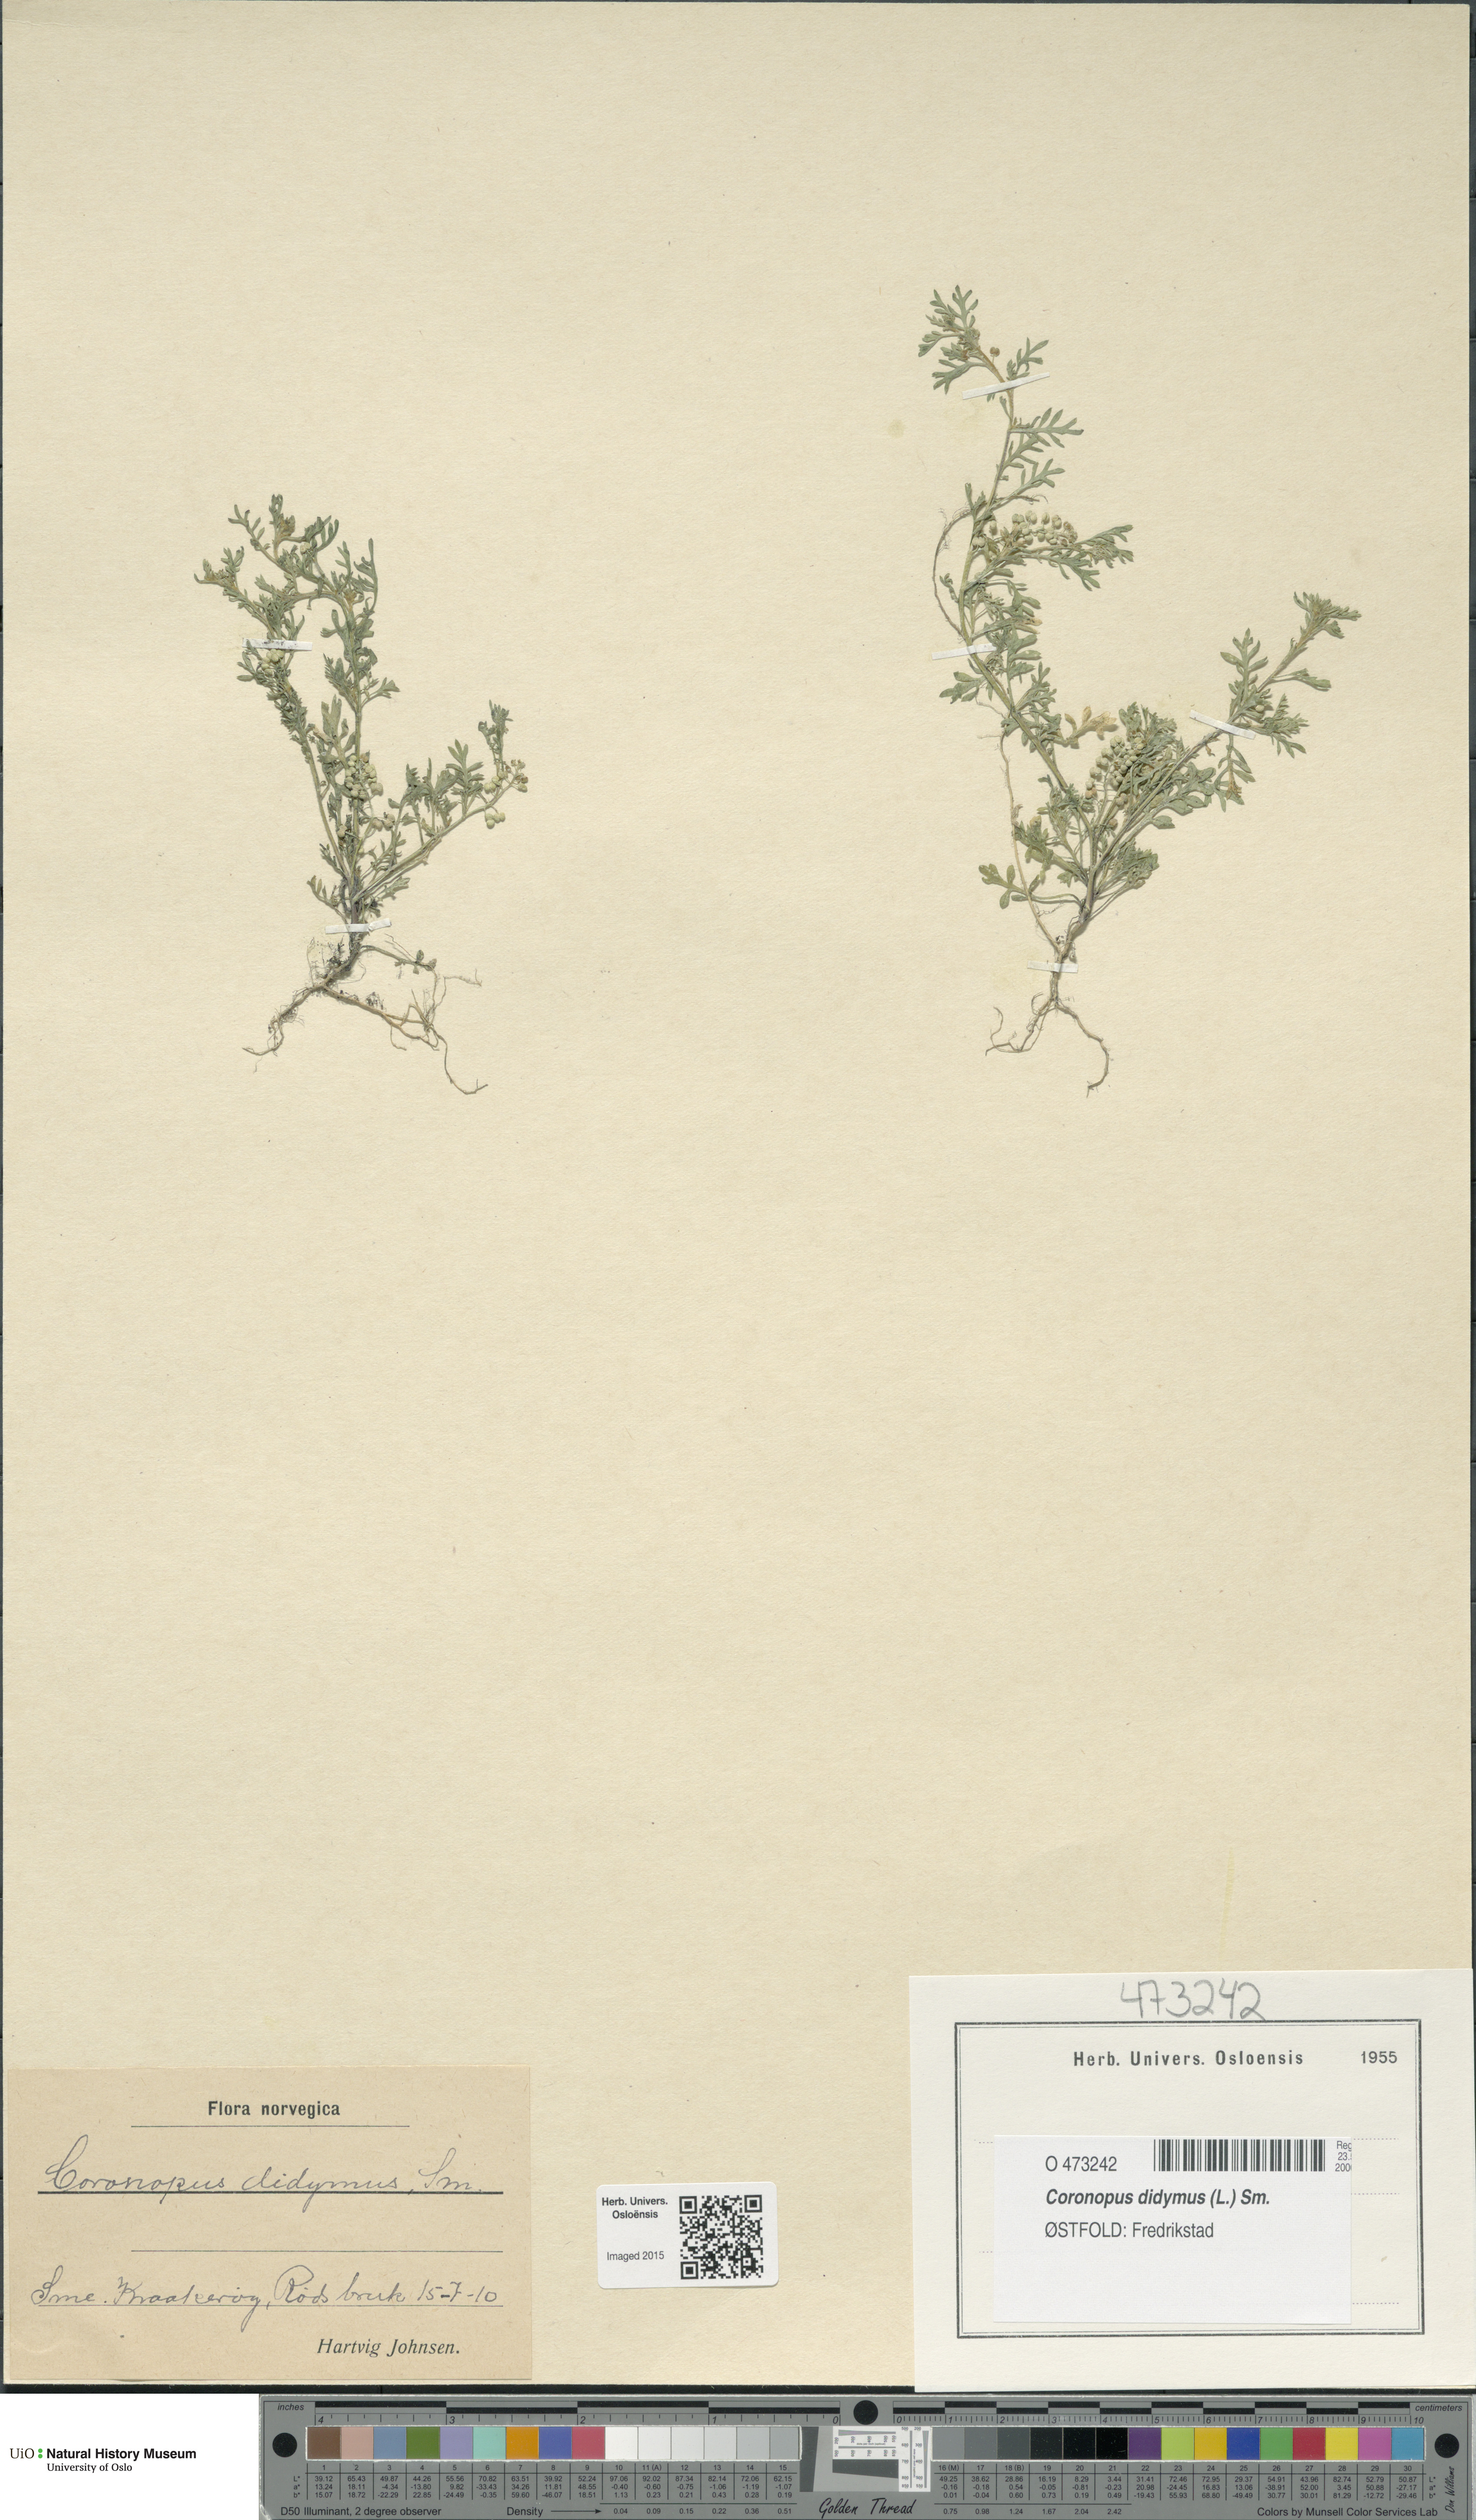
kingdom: Plantae
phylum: Tracheophyta
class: Magnoliopsida
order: Brassicales
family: Brassicaceae
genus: Lepidium
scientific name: Lepidium didymum
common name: Lesser swinecress
